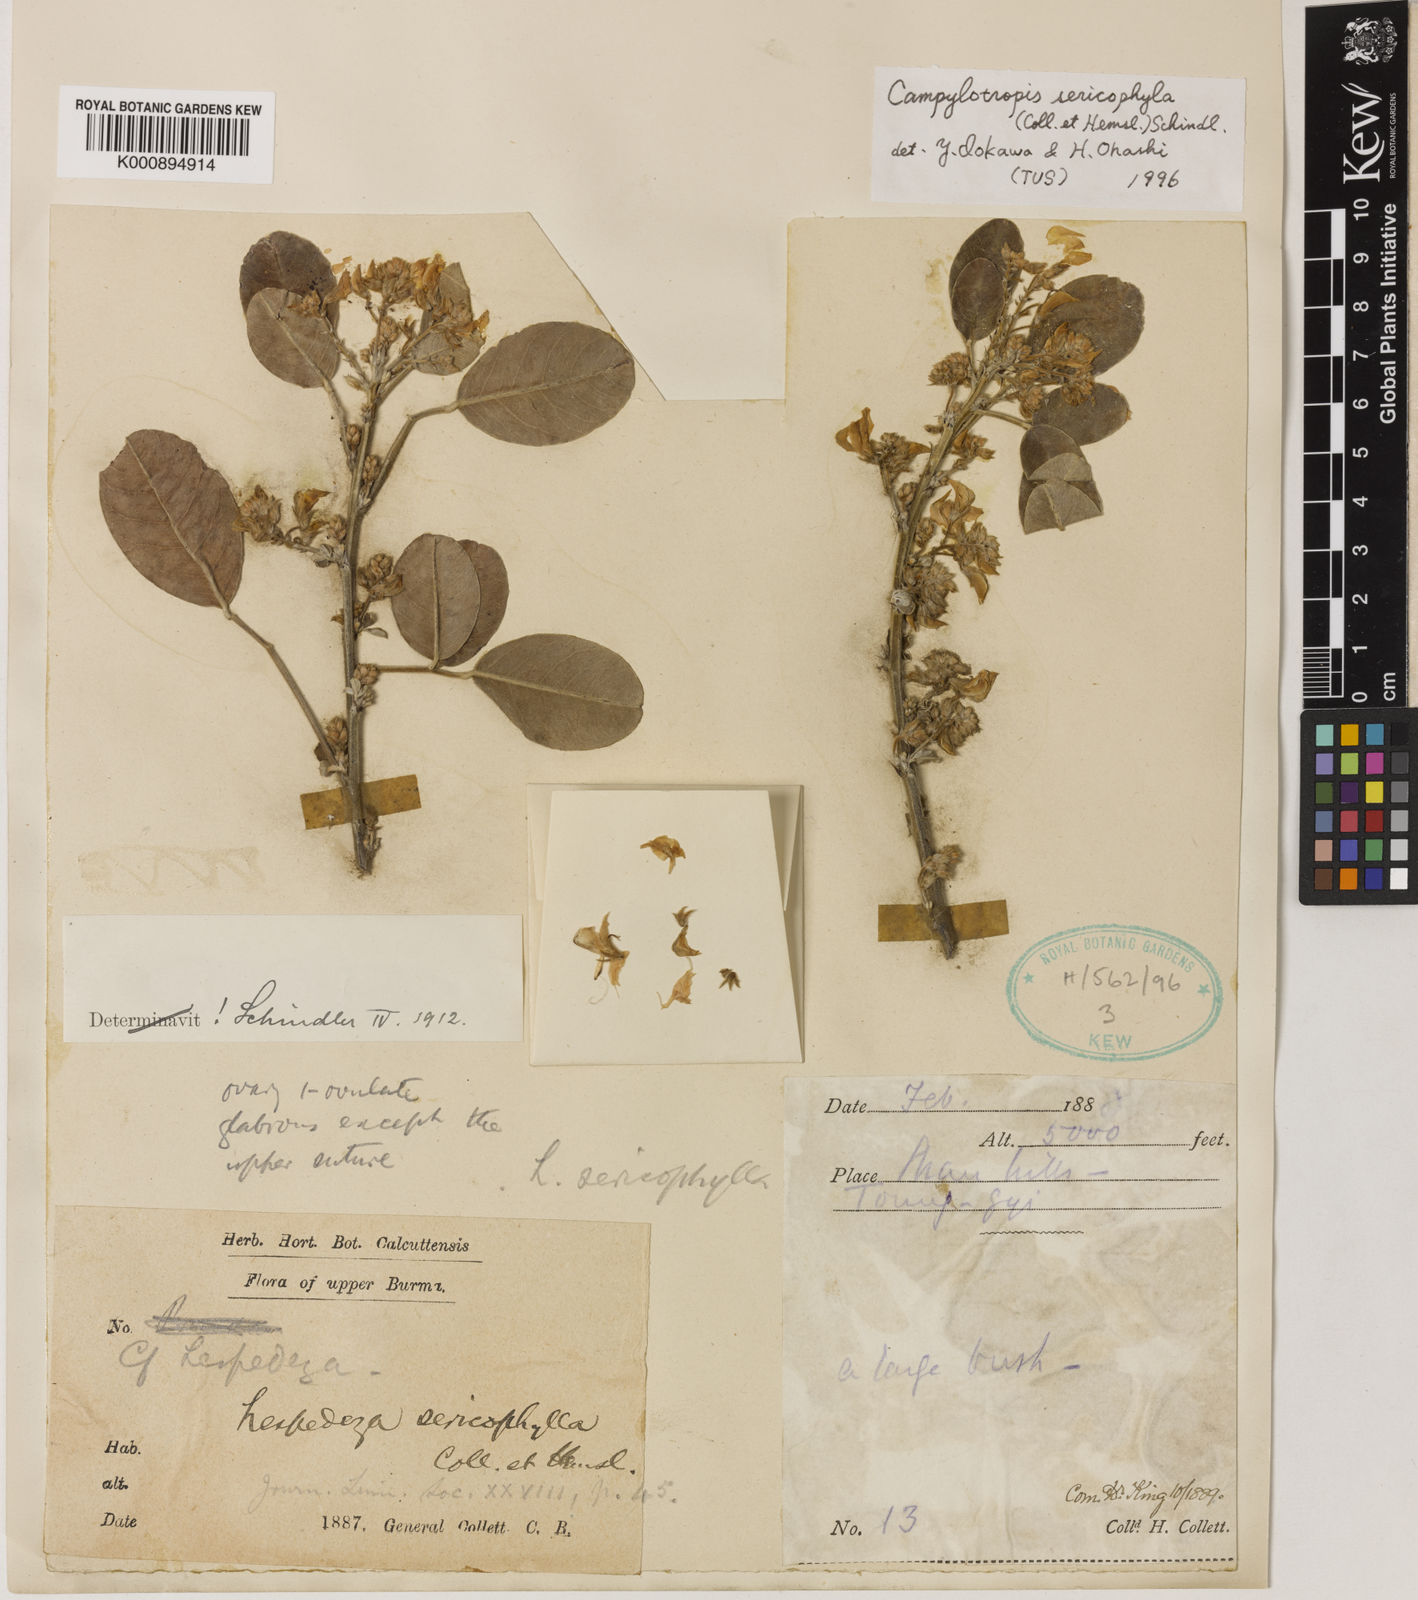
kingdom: Plantae
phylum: Tracheophyta
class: Magnoliopsida
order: Fabales
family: Fabaceae
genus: Campylotropis
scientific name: Campylotropis decora
